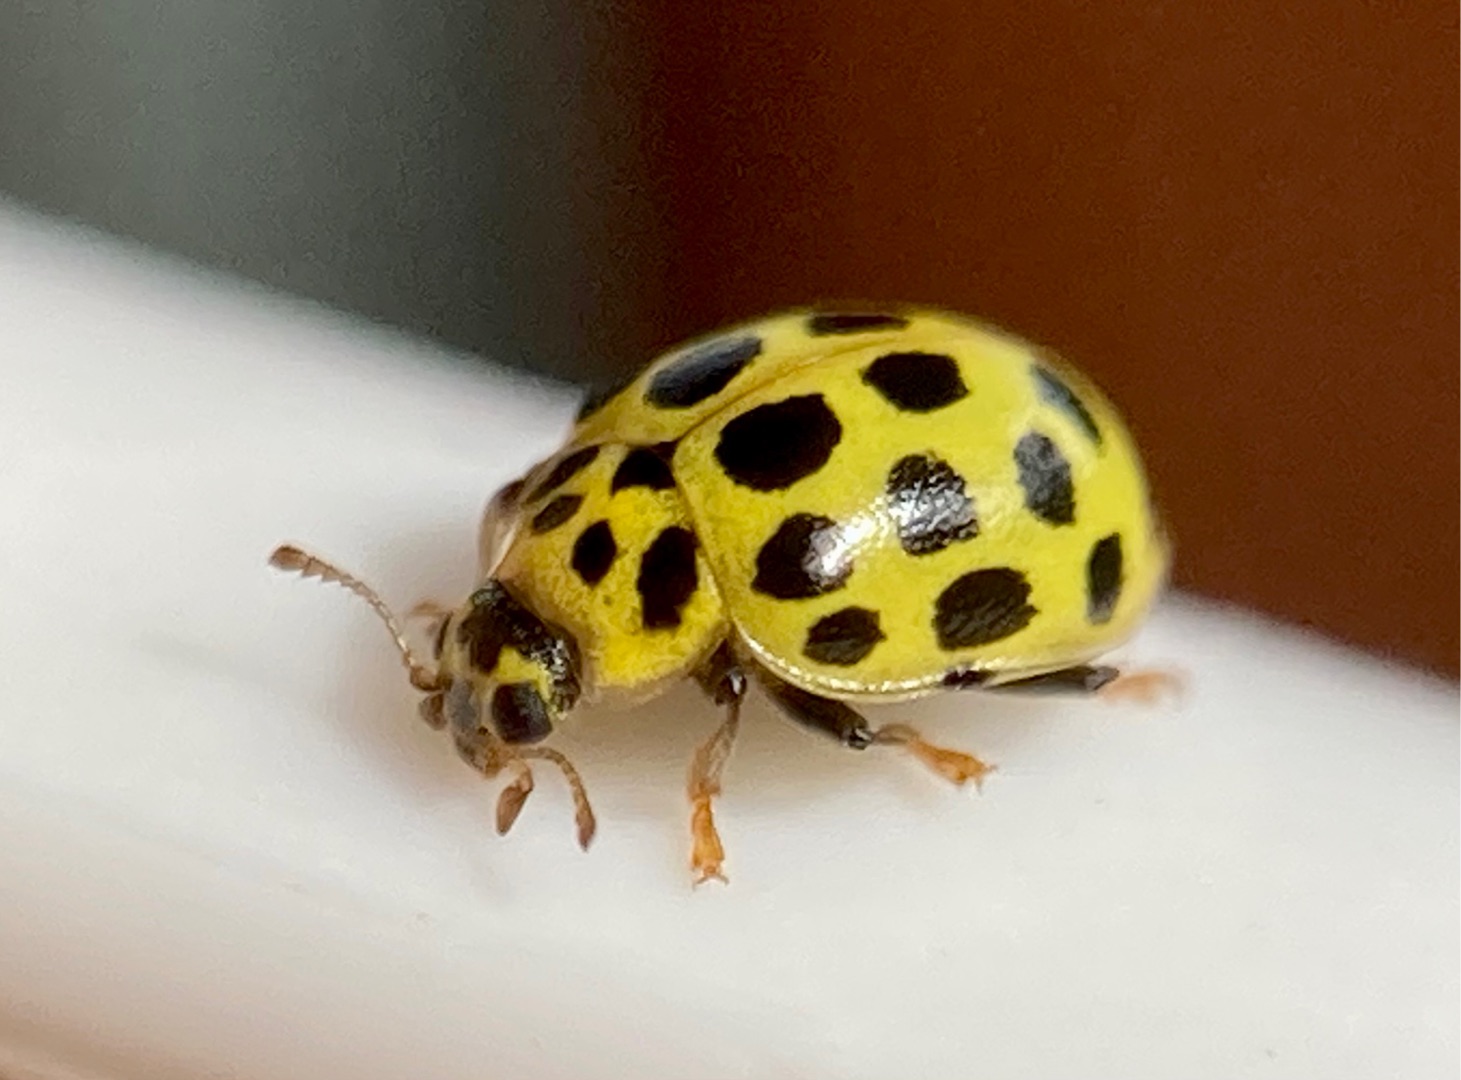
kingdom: Animalia
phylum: Arthropoda
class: Insecta
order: Coleoptera
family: Coccinellidae
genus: Psyllobora
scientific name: Psyllobora vigintiduopunctata
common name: Toogtyveplettet mariehøne
